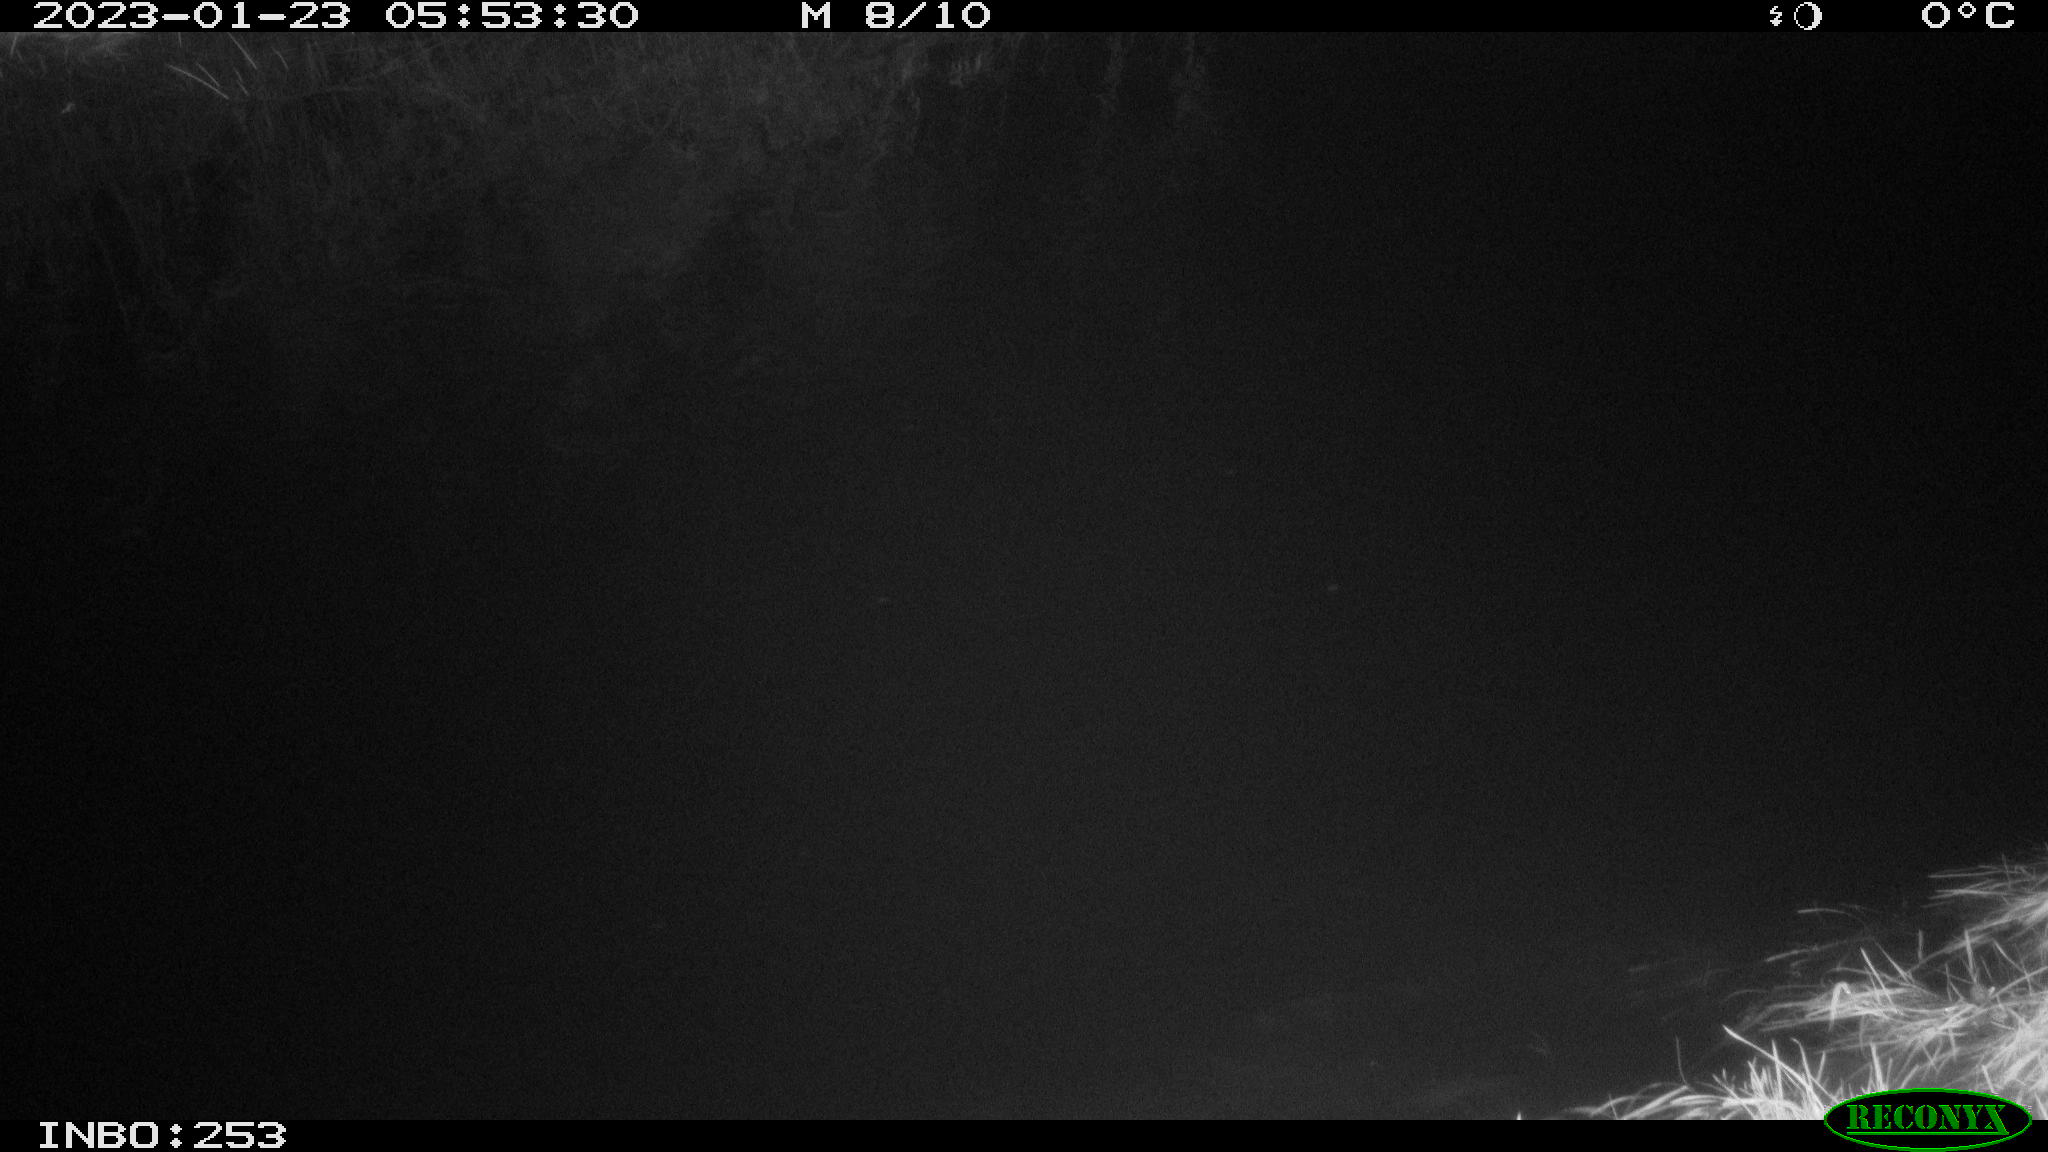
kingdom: Animalia
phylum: Chordata
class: Aves
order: Anseriformes
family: Anatidae
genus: Anas
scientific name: Anas
